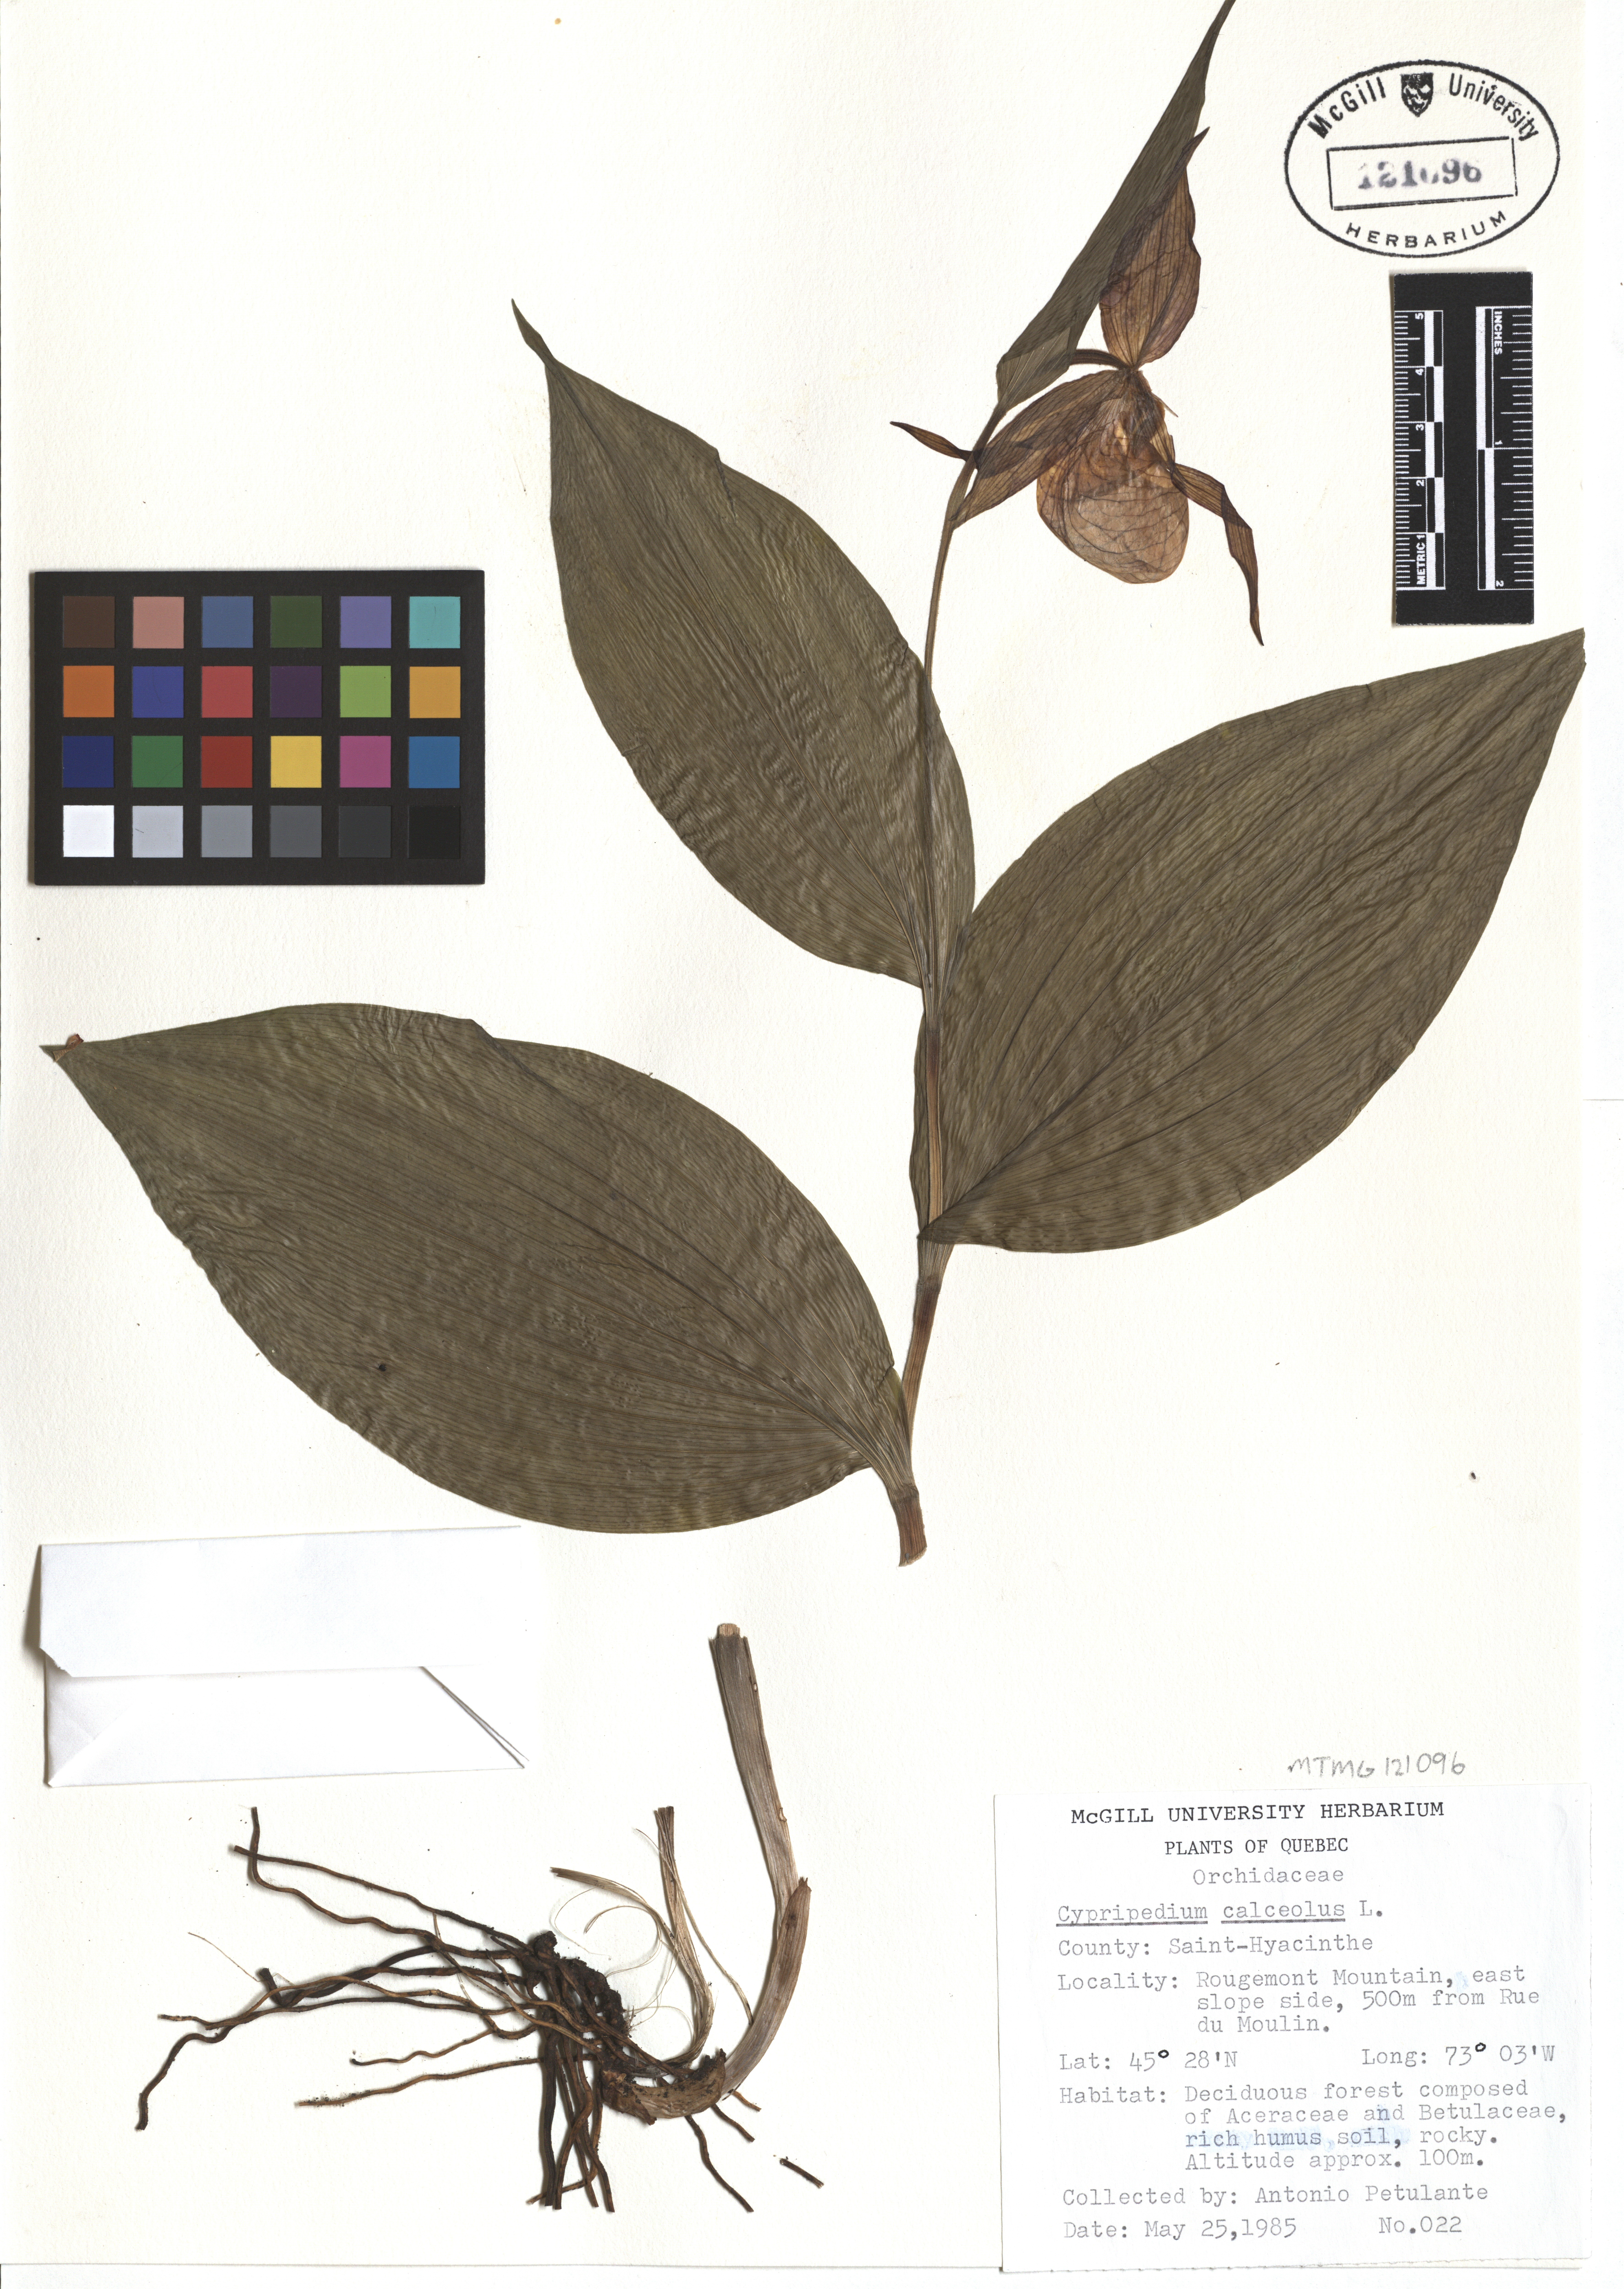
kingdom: Plantae
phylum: Tracheophyta
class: Liliopsida
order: Asparagales
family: Orchidaceae
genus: Cypripedium
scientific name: Cypripedium calceolus
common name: Lady's-slipper
